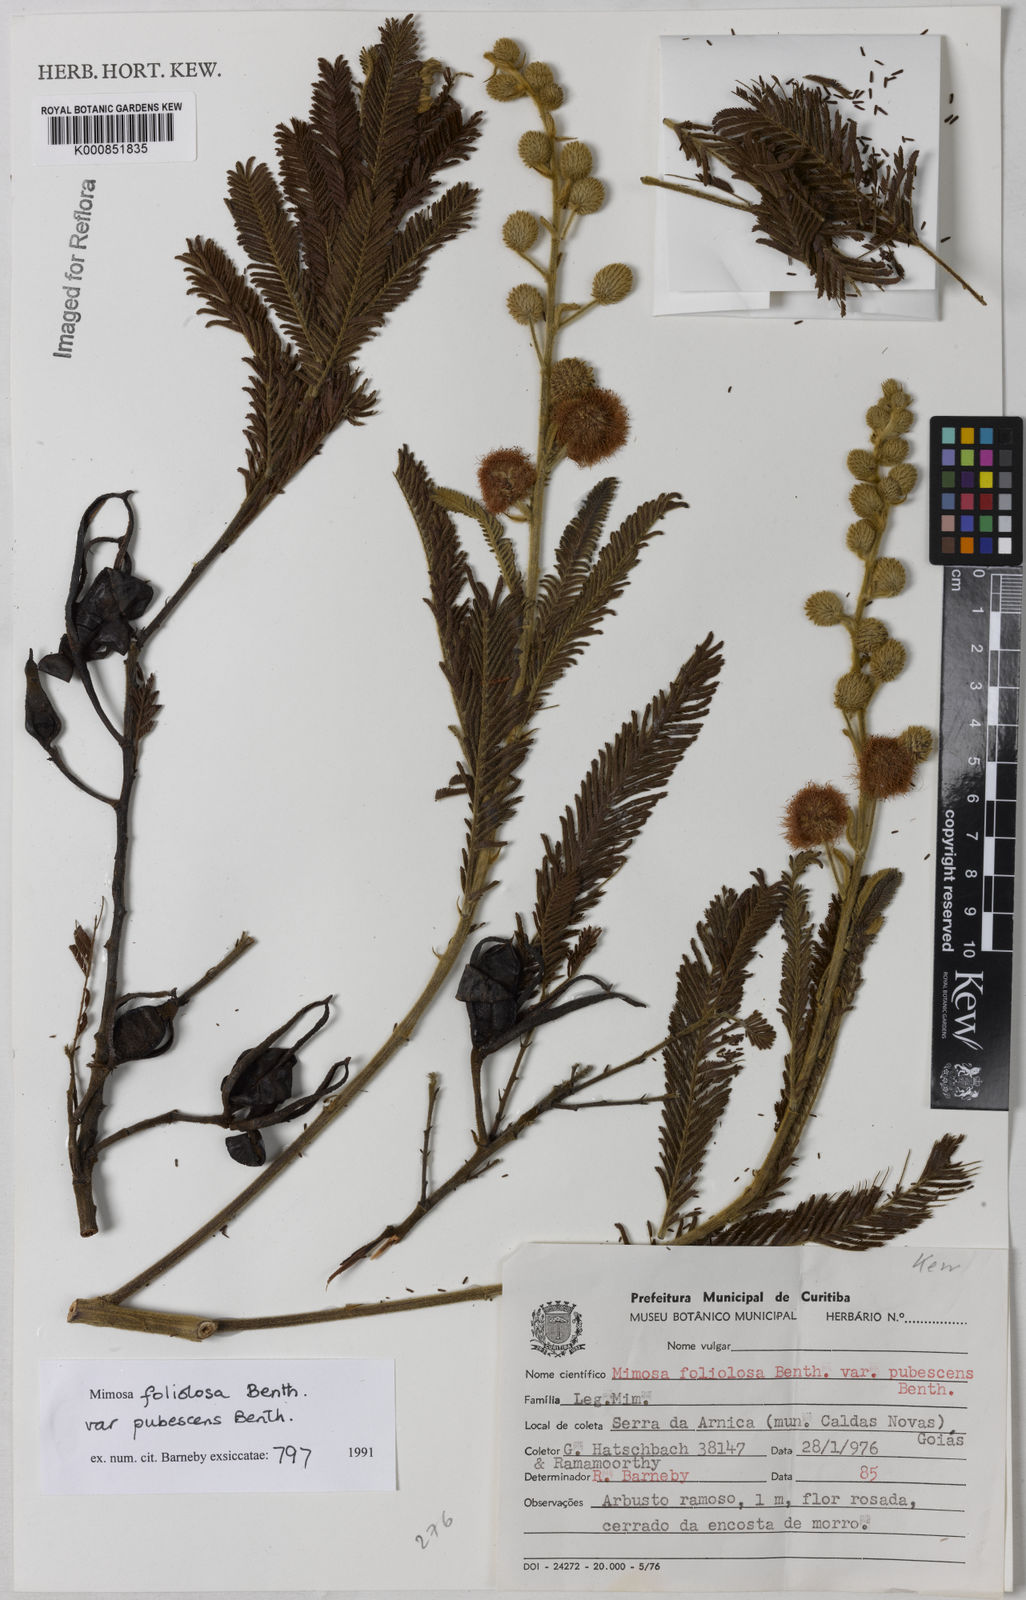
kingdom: Plantae
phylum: Tracheophyta
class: Magnoliopsida
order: Fabales
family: Fabaceae
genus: Mimosa
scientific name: Mimosa foliolosa
